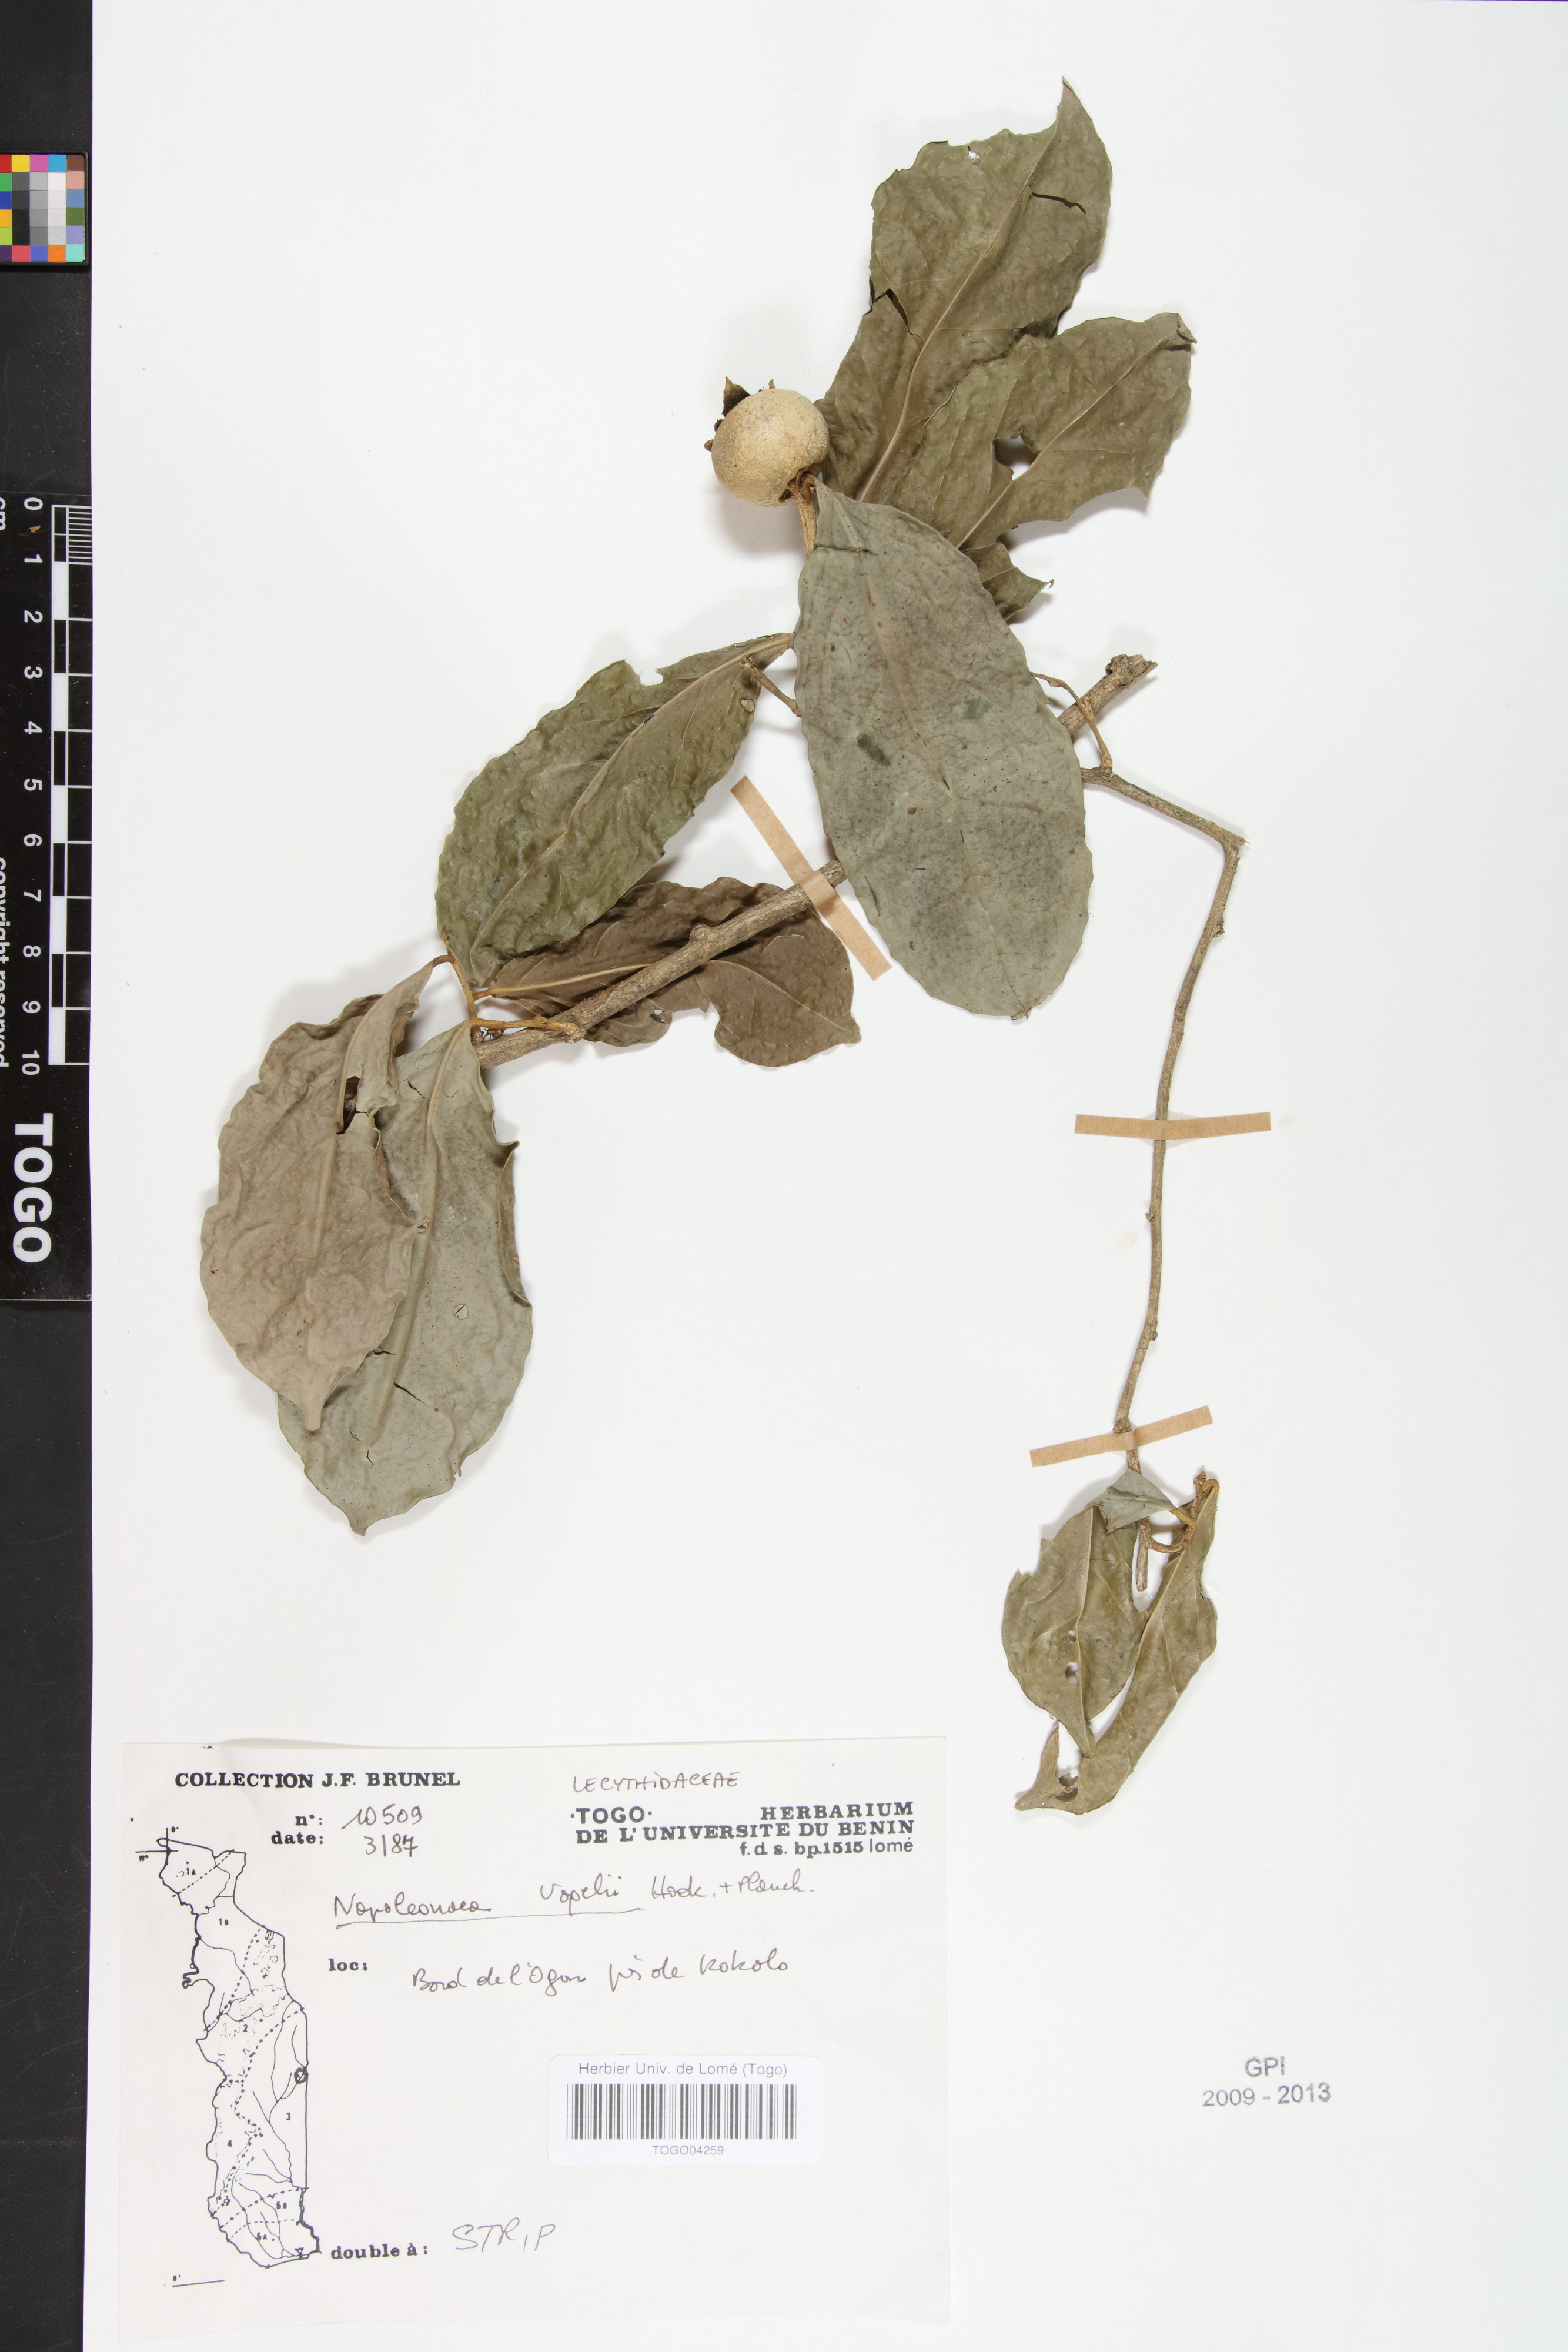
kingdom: Plantae
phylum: Tracheophyta
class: Magnoliopsida
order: Ericales
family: Lecythidaceae
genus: Napoleonaea
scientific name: Napoleonaea vogelii
